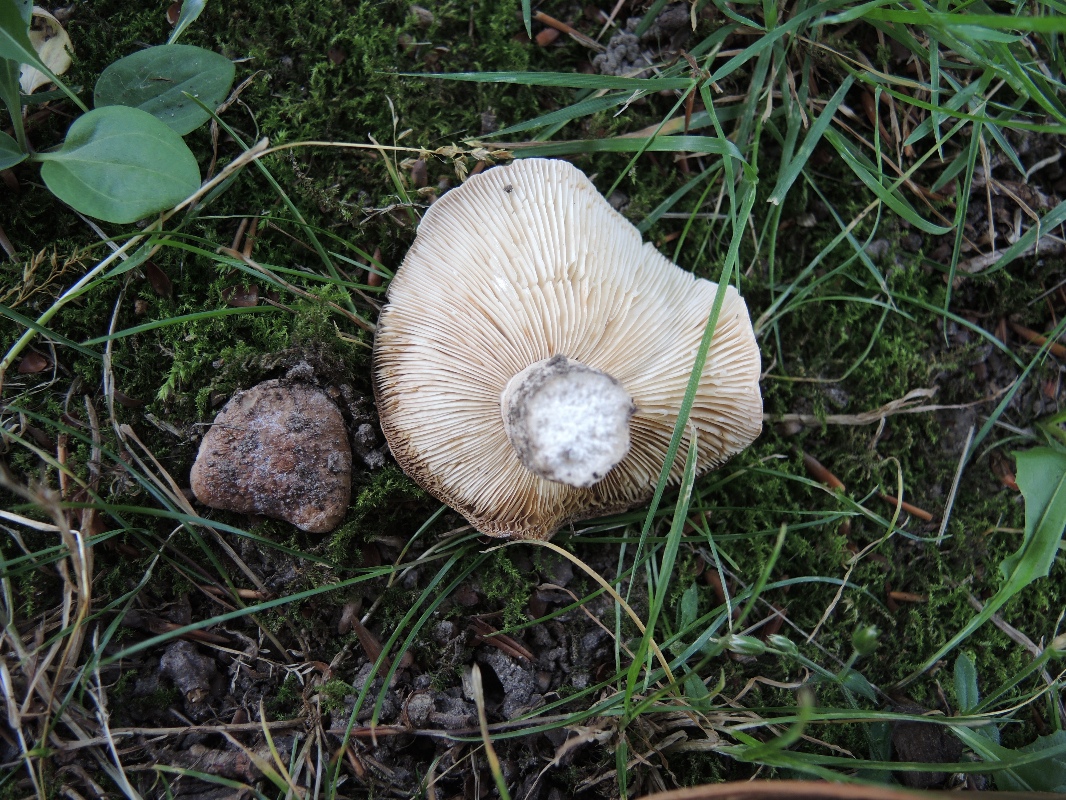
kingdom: Fungi
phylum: Basidiomycota
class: Agaricomycetes
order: Russulales
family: Russulaceae
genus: Lactarius
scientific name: Lactarius pallidus
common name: bleg mælkehat
